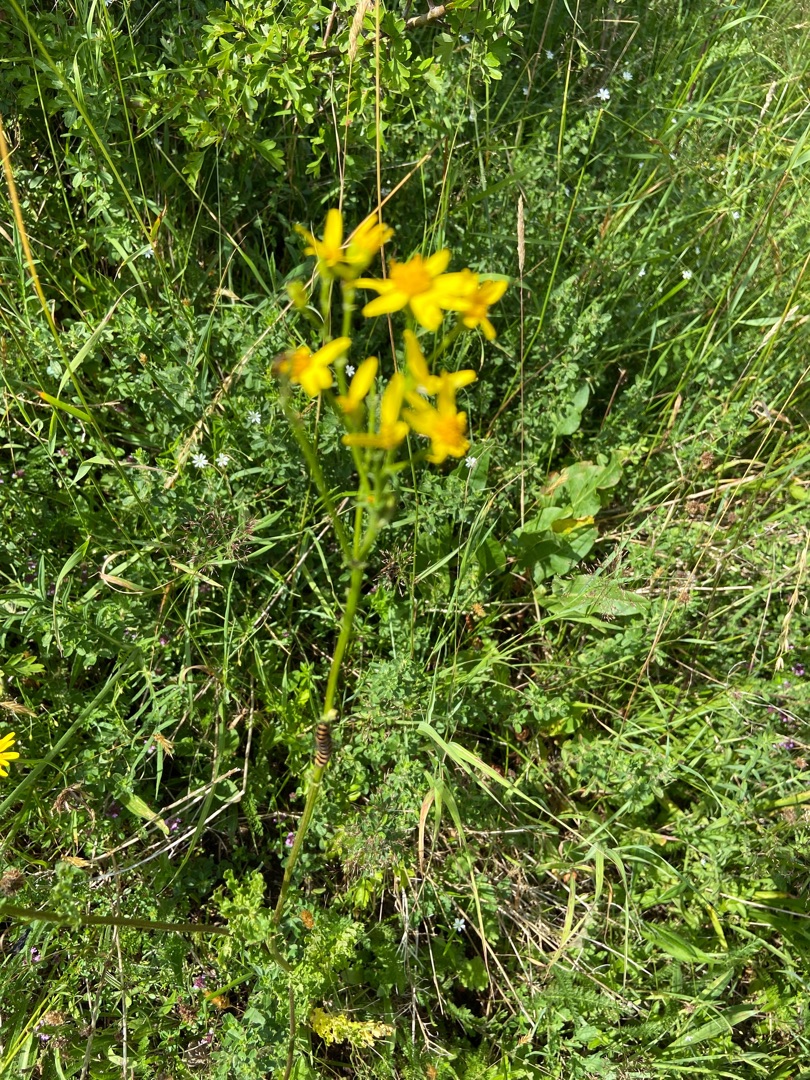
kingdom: Animalia
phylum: Arthropoda
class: Insecta
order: Lepidoptera
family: Erebidae
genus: Tyria
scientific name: Tyria jacobaeae
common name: Blodplet
